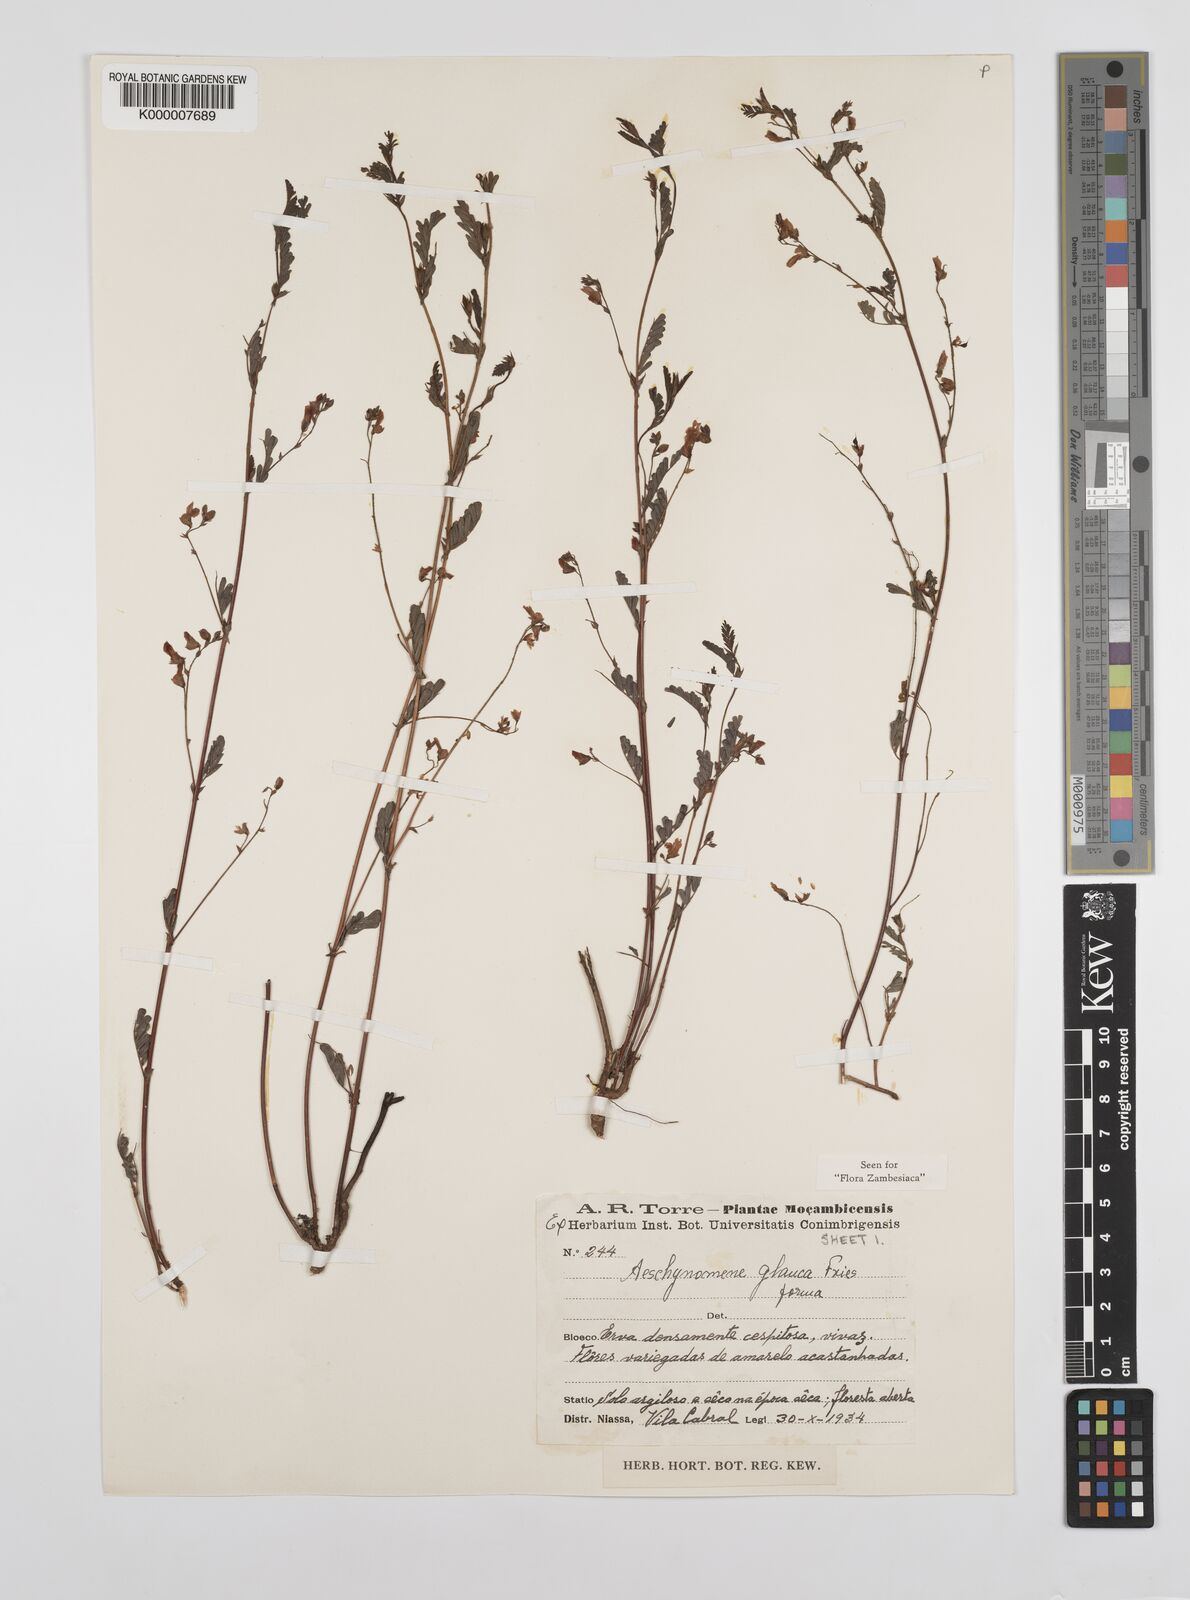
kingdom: Plantae
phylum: Tracheophyta
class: Magnoliopsida
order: Fabales
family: Fabaceae
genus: Aeschynomene
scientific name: Aeschynomene glauca
